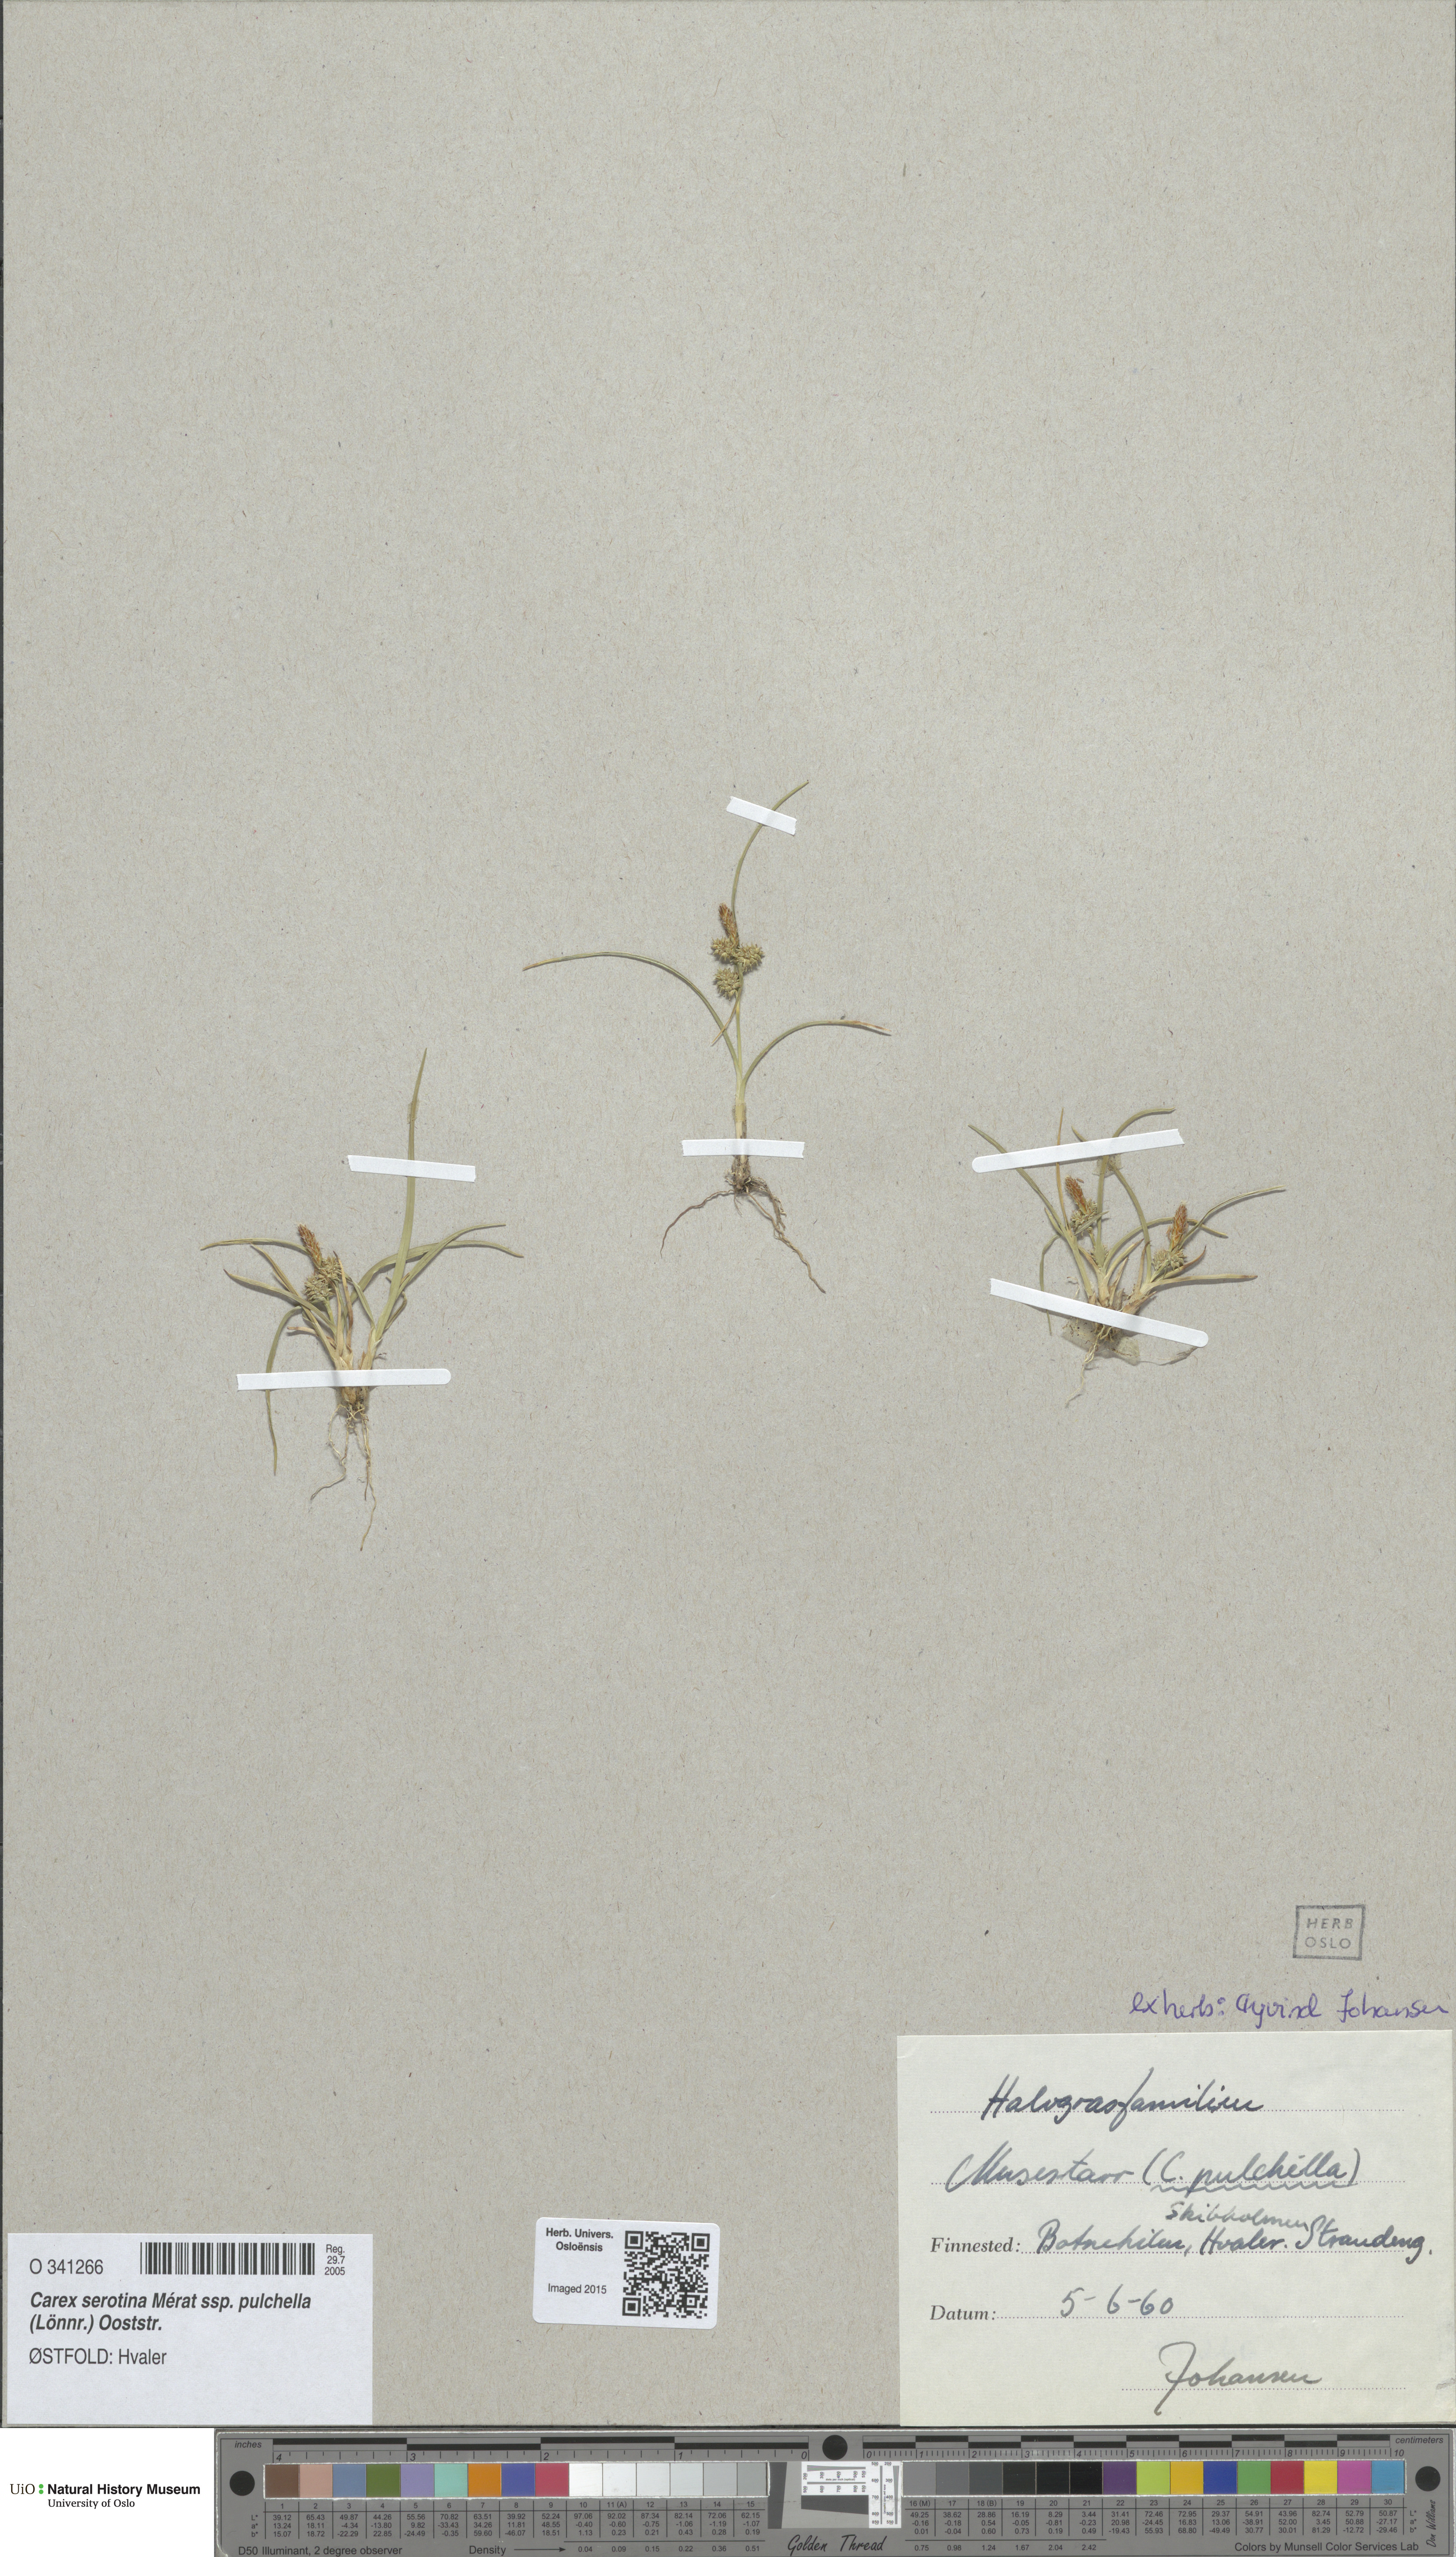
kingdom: Plantae
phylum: Tracheophyta
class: Liliopsida
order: Poales
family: Cyperaceae
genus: Carex
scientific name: Carex oederi
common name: Common & small-fruited yellow-sedge
